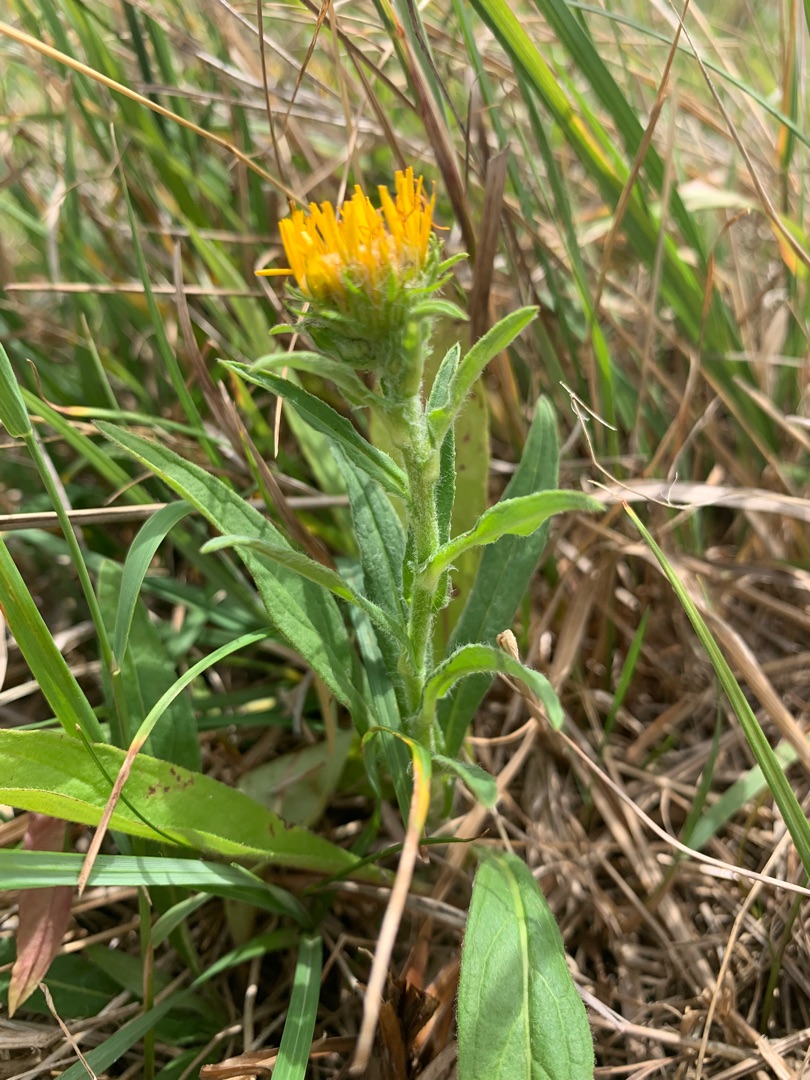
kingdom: Plantae
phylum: Tracheophyta
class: Magnoliopsida
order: Asterales
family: Asteraceae
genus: Pentanema
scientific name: Pentanema britannicum
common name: Soløje-alant
